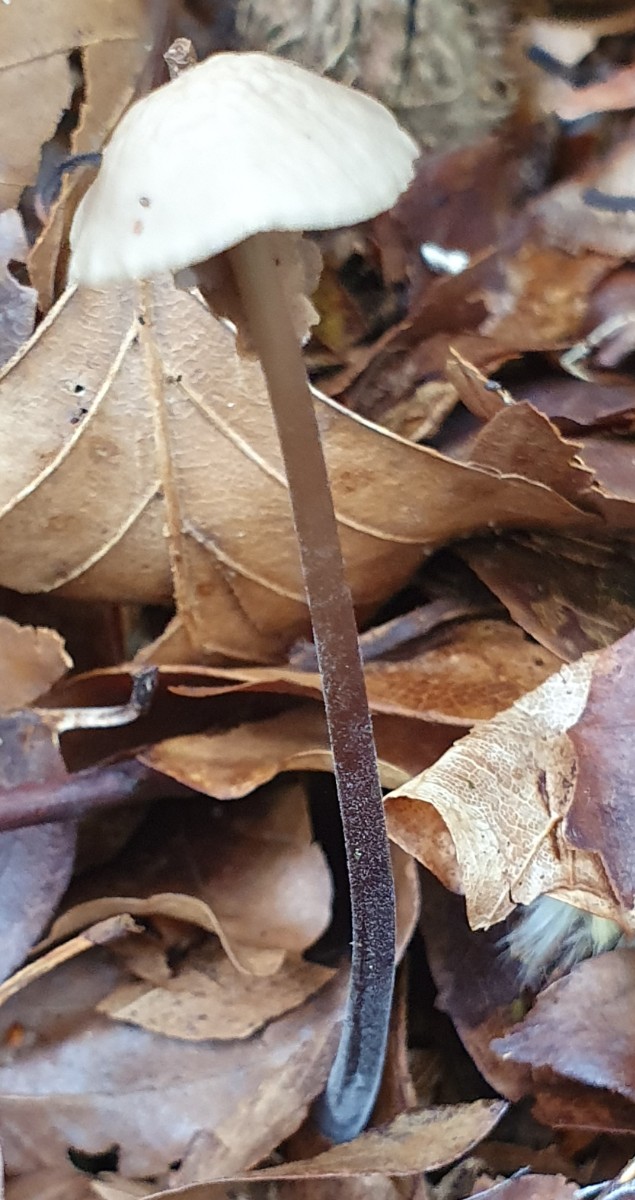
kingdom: Fungi
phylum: Basidiomycota
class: Agaricomycetes
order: Agaricales
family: Omphalotaceae
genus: Mycetinis
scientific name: Mycetinis alliaceus
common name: stor løghat
